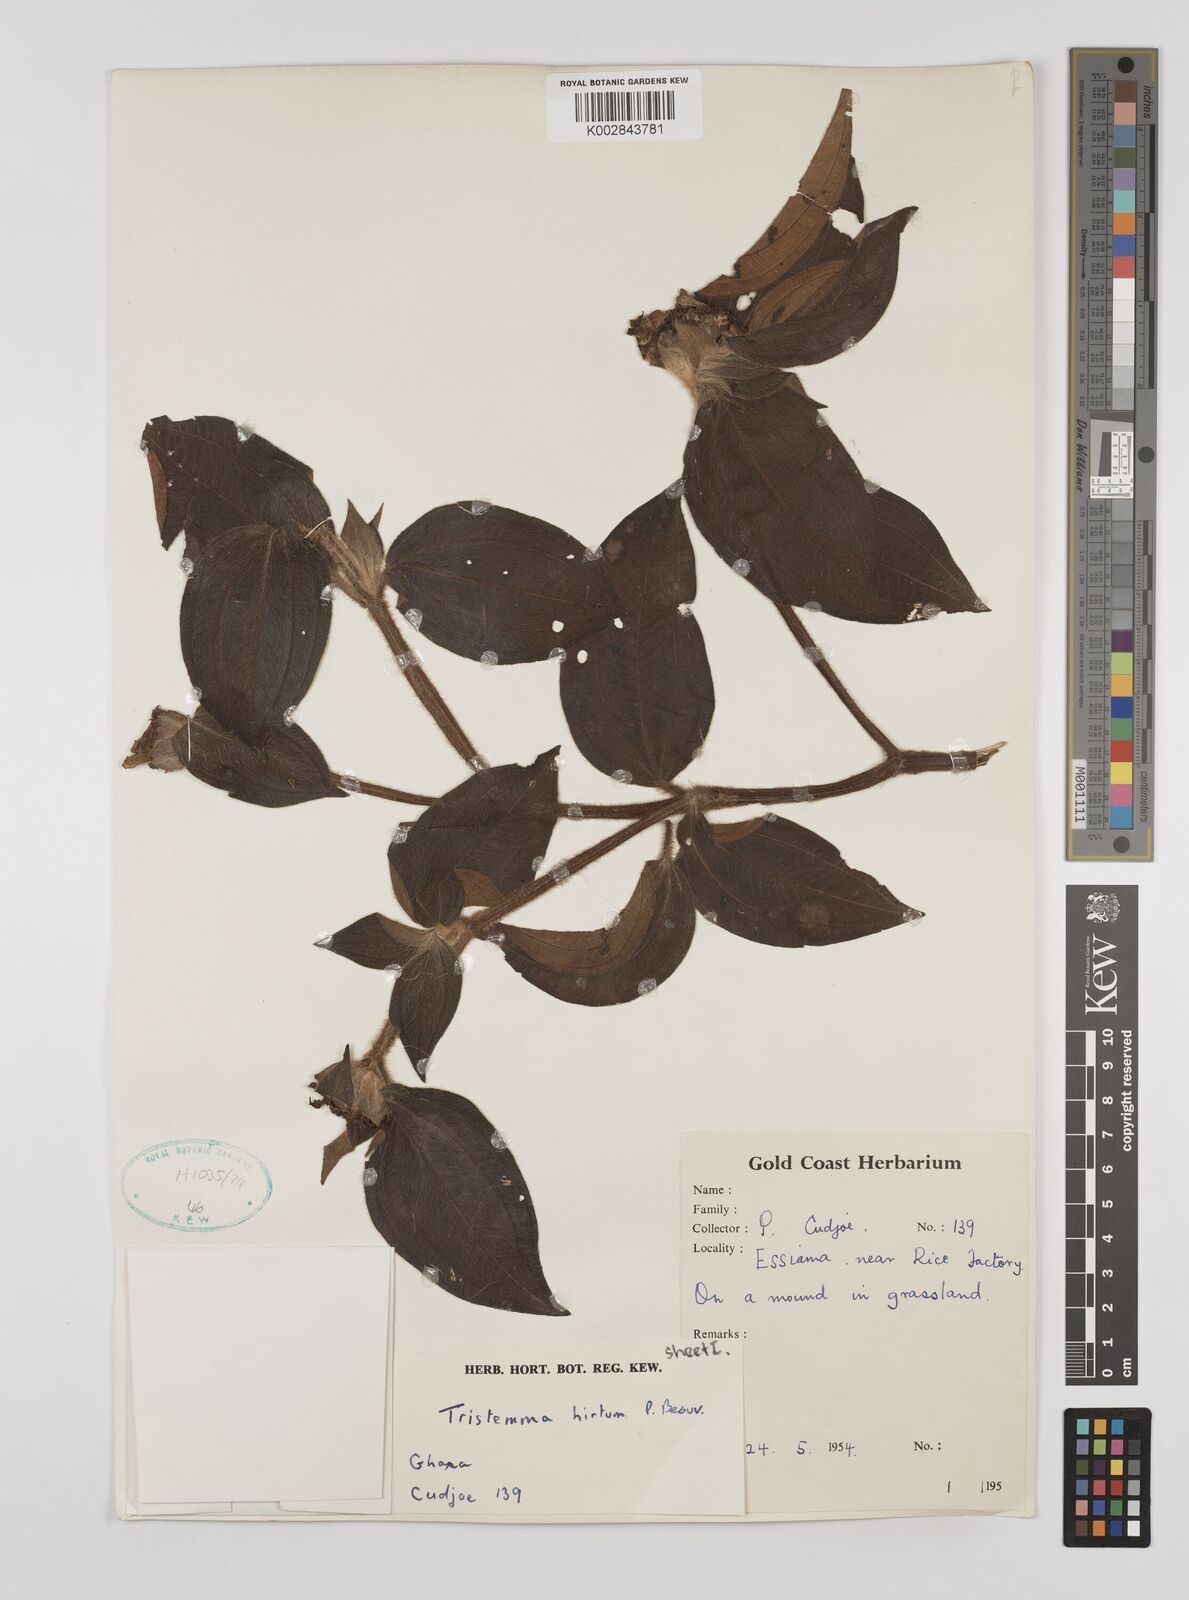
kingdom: Plantae
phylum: Tracheophyta
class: Magnoliopsida
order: Myrtales
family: Melastomataceae
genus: Tristemma
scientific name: Tristemma
